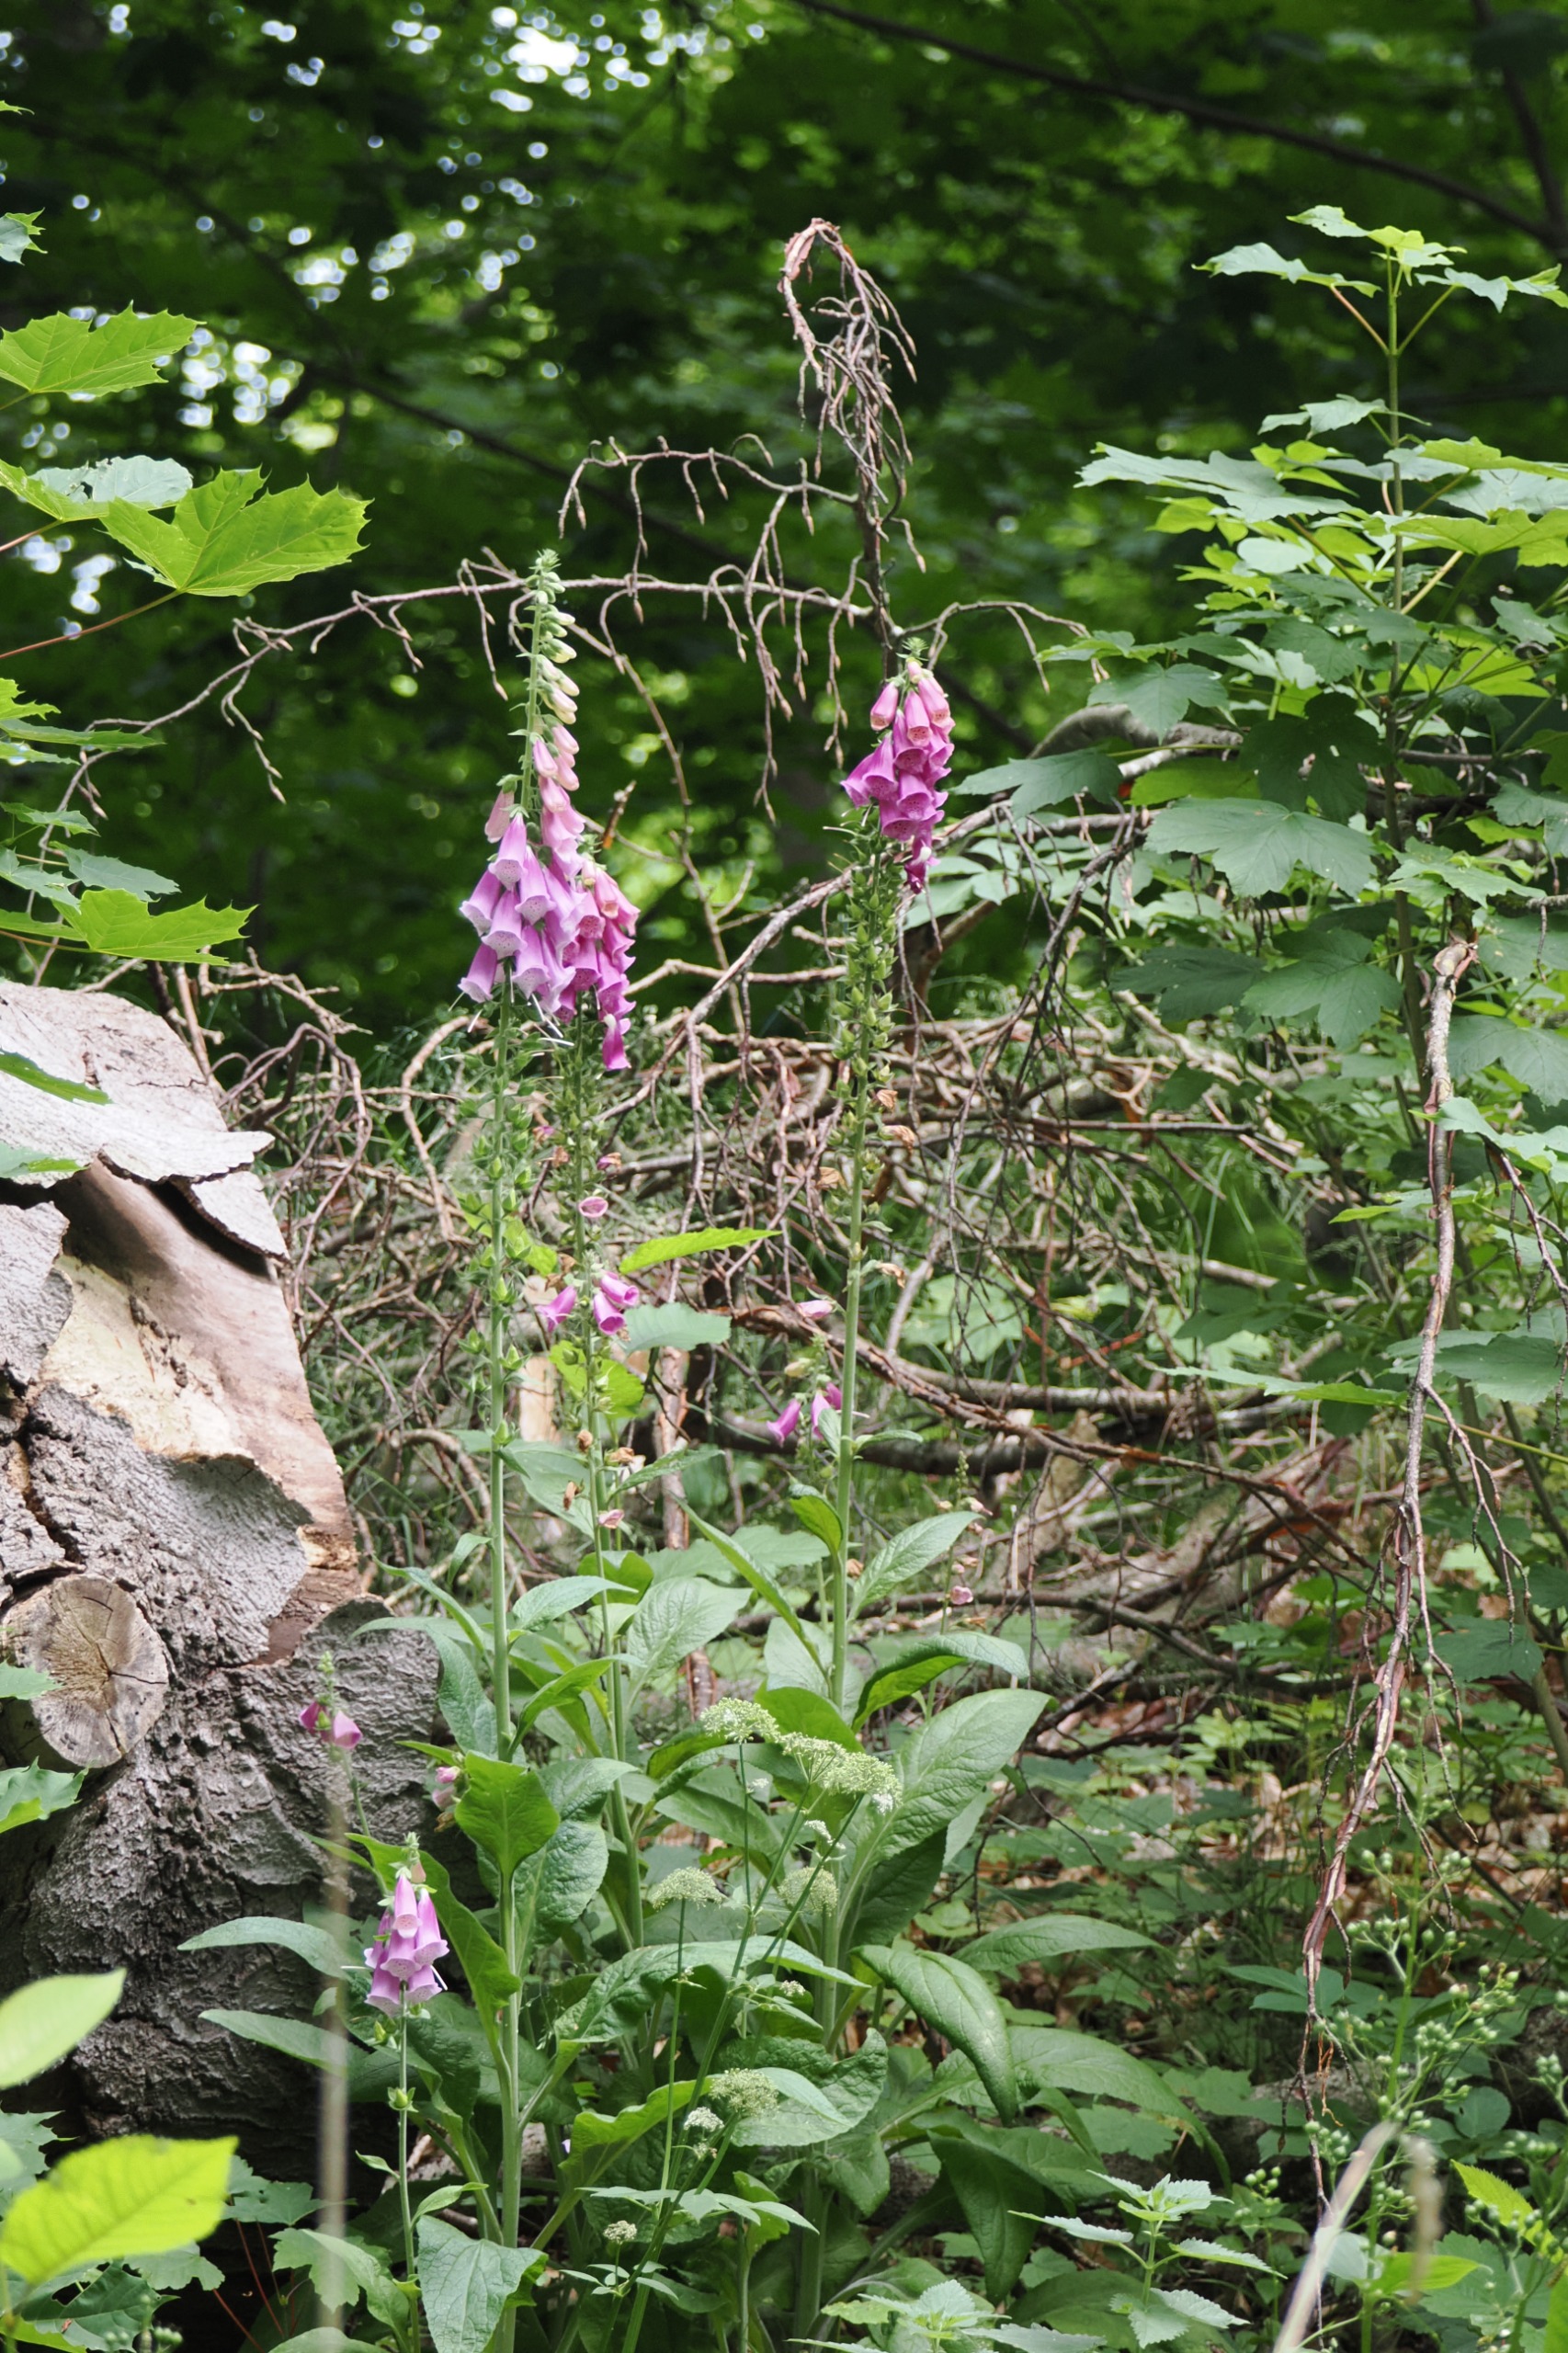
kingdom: Plantae
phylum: Tracheophyta
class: Magnoliopsida
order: Lamiales
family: Plantaginaceae
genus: Digitalis
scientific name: Digitalis purpurea
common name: Almindelig fingerbøl
